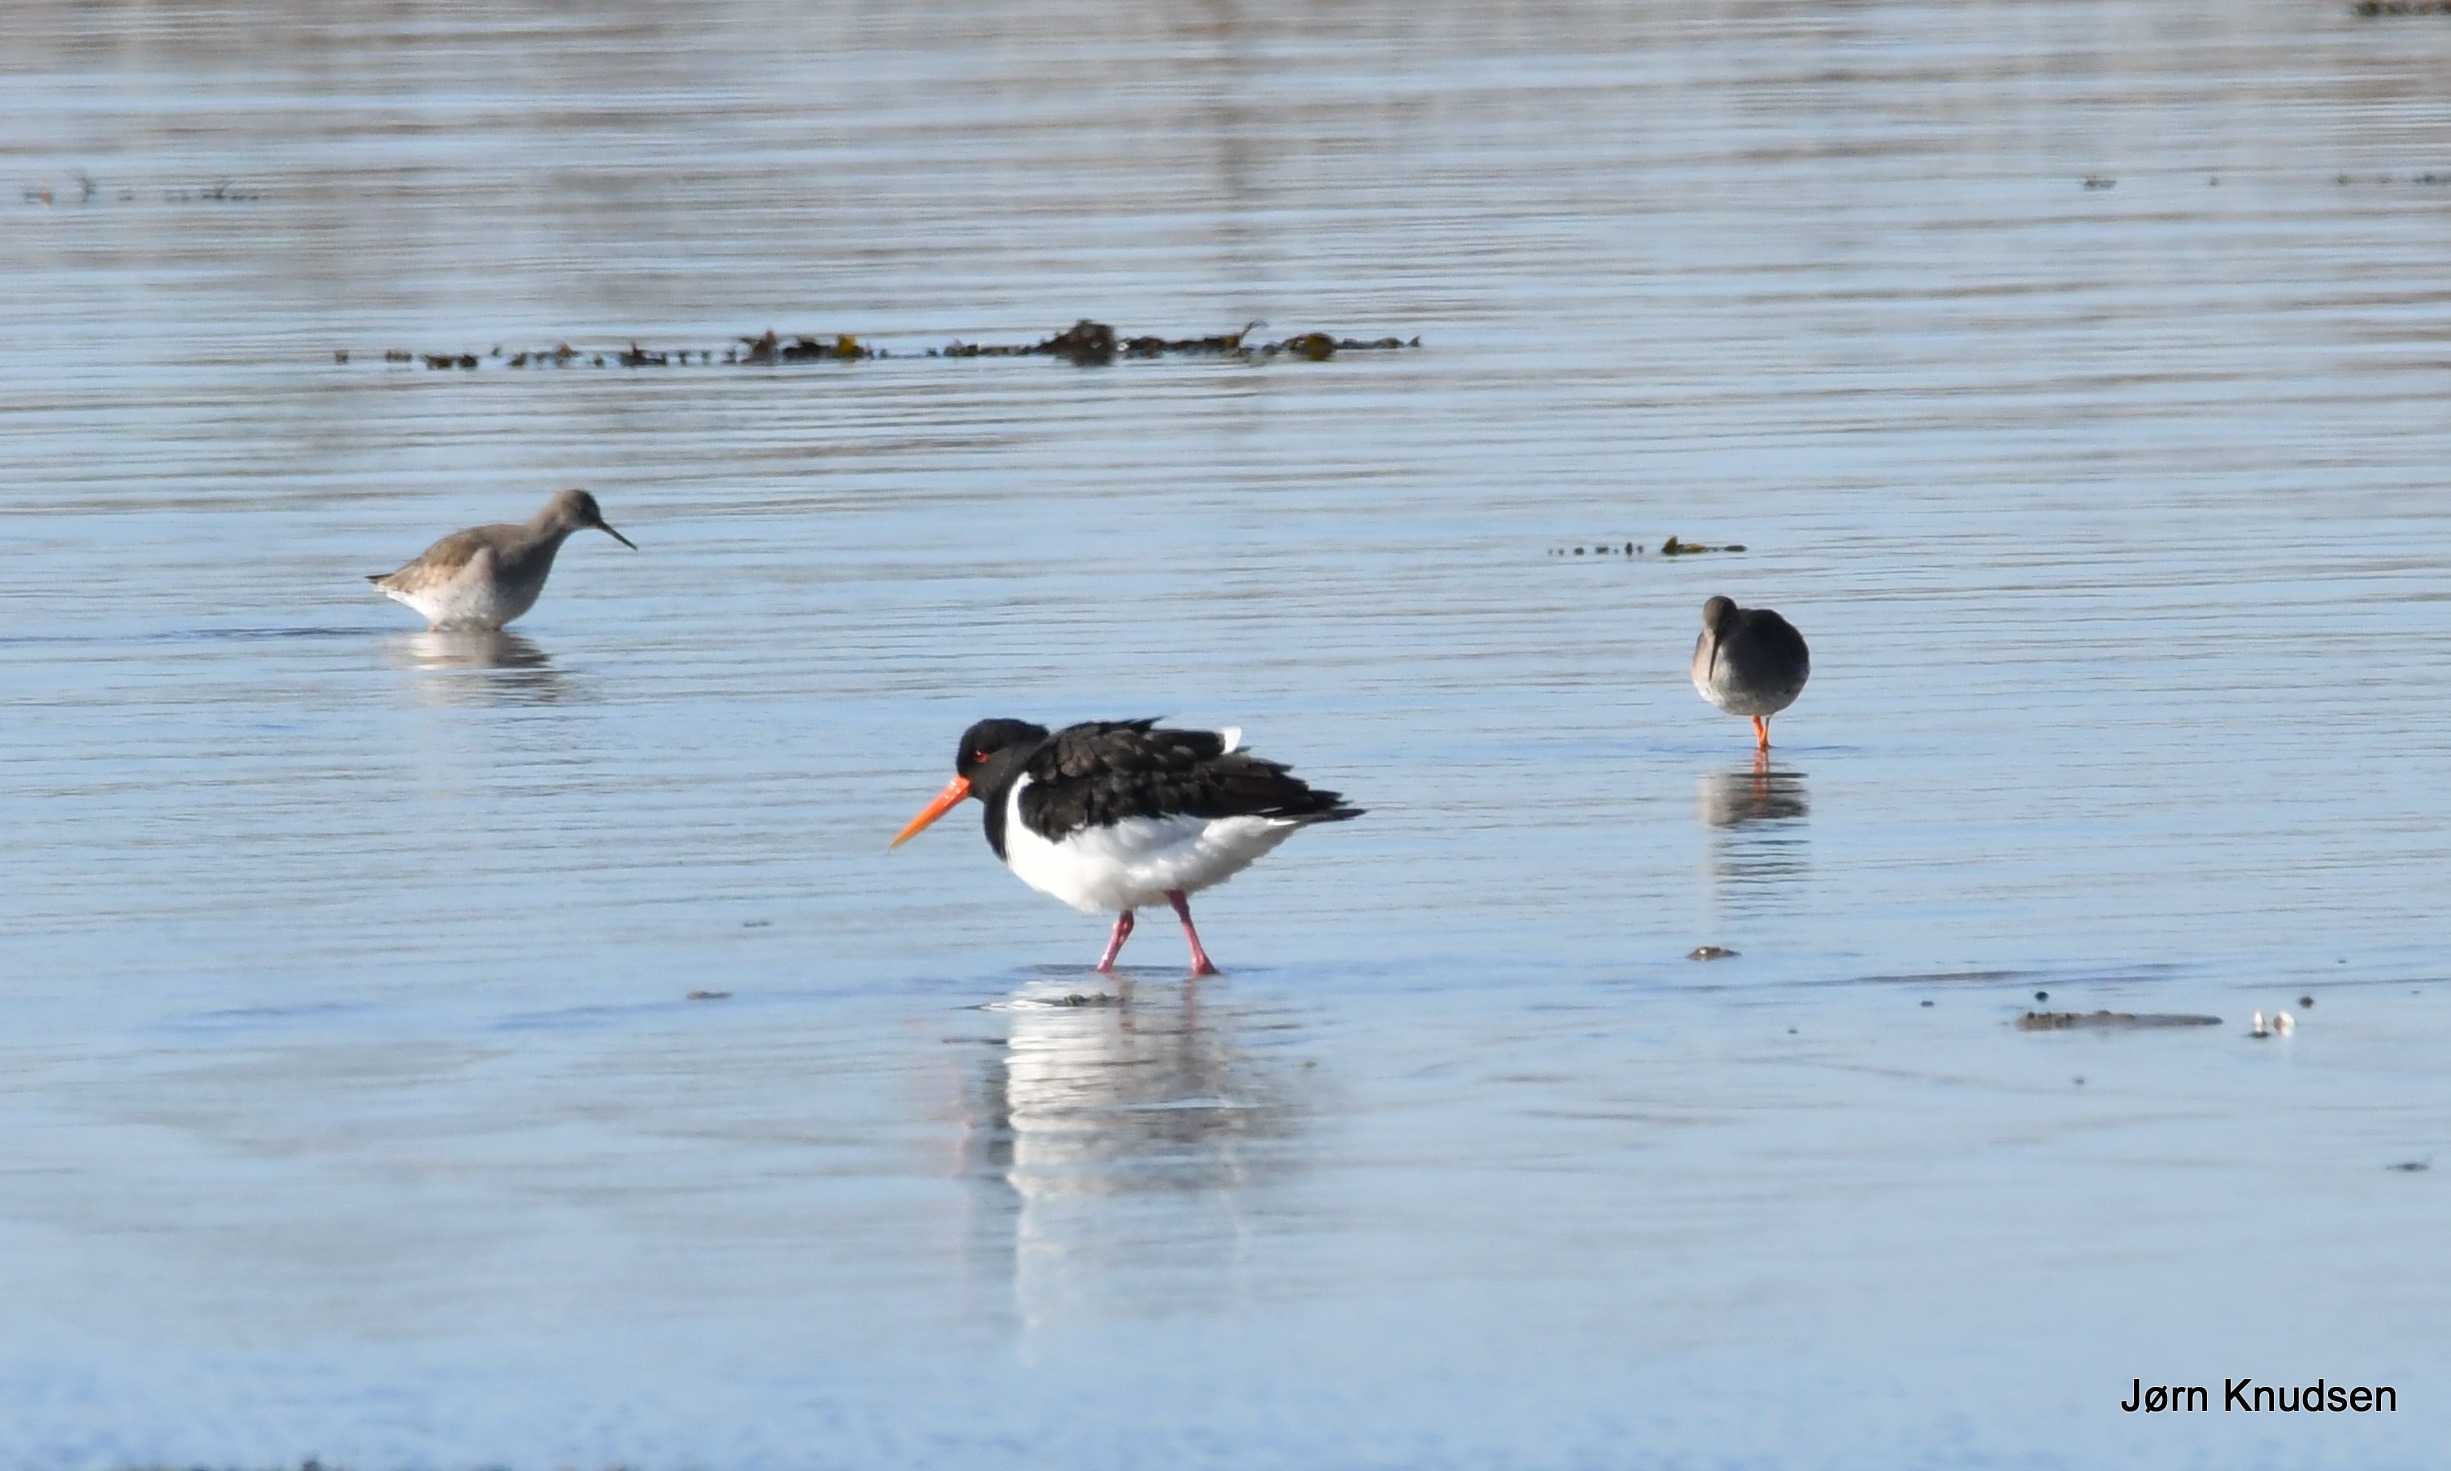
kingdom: Animalia
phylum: Chordata
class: Aves
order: Charadriiformes
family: Scolopacidae
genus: Tringa
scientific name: Tringa totanus
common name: Rødben
